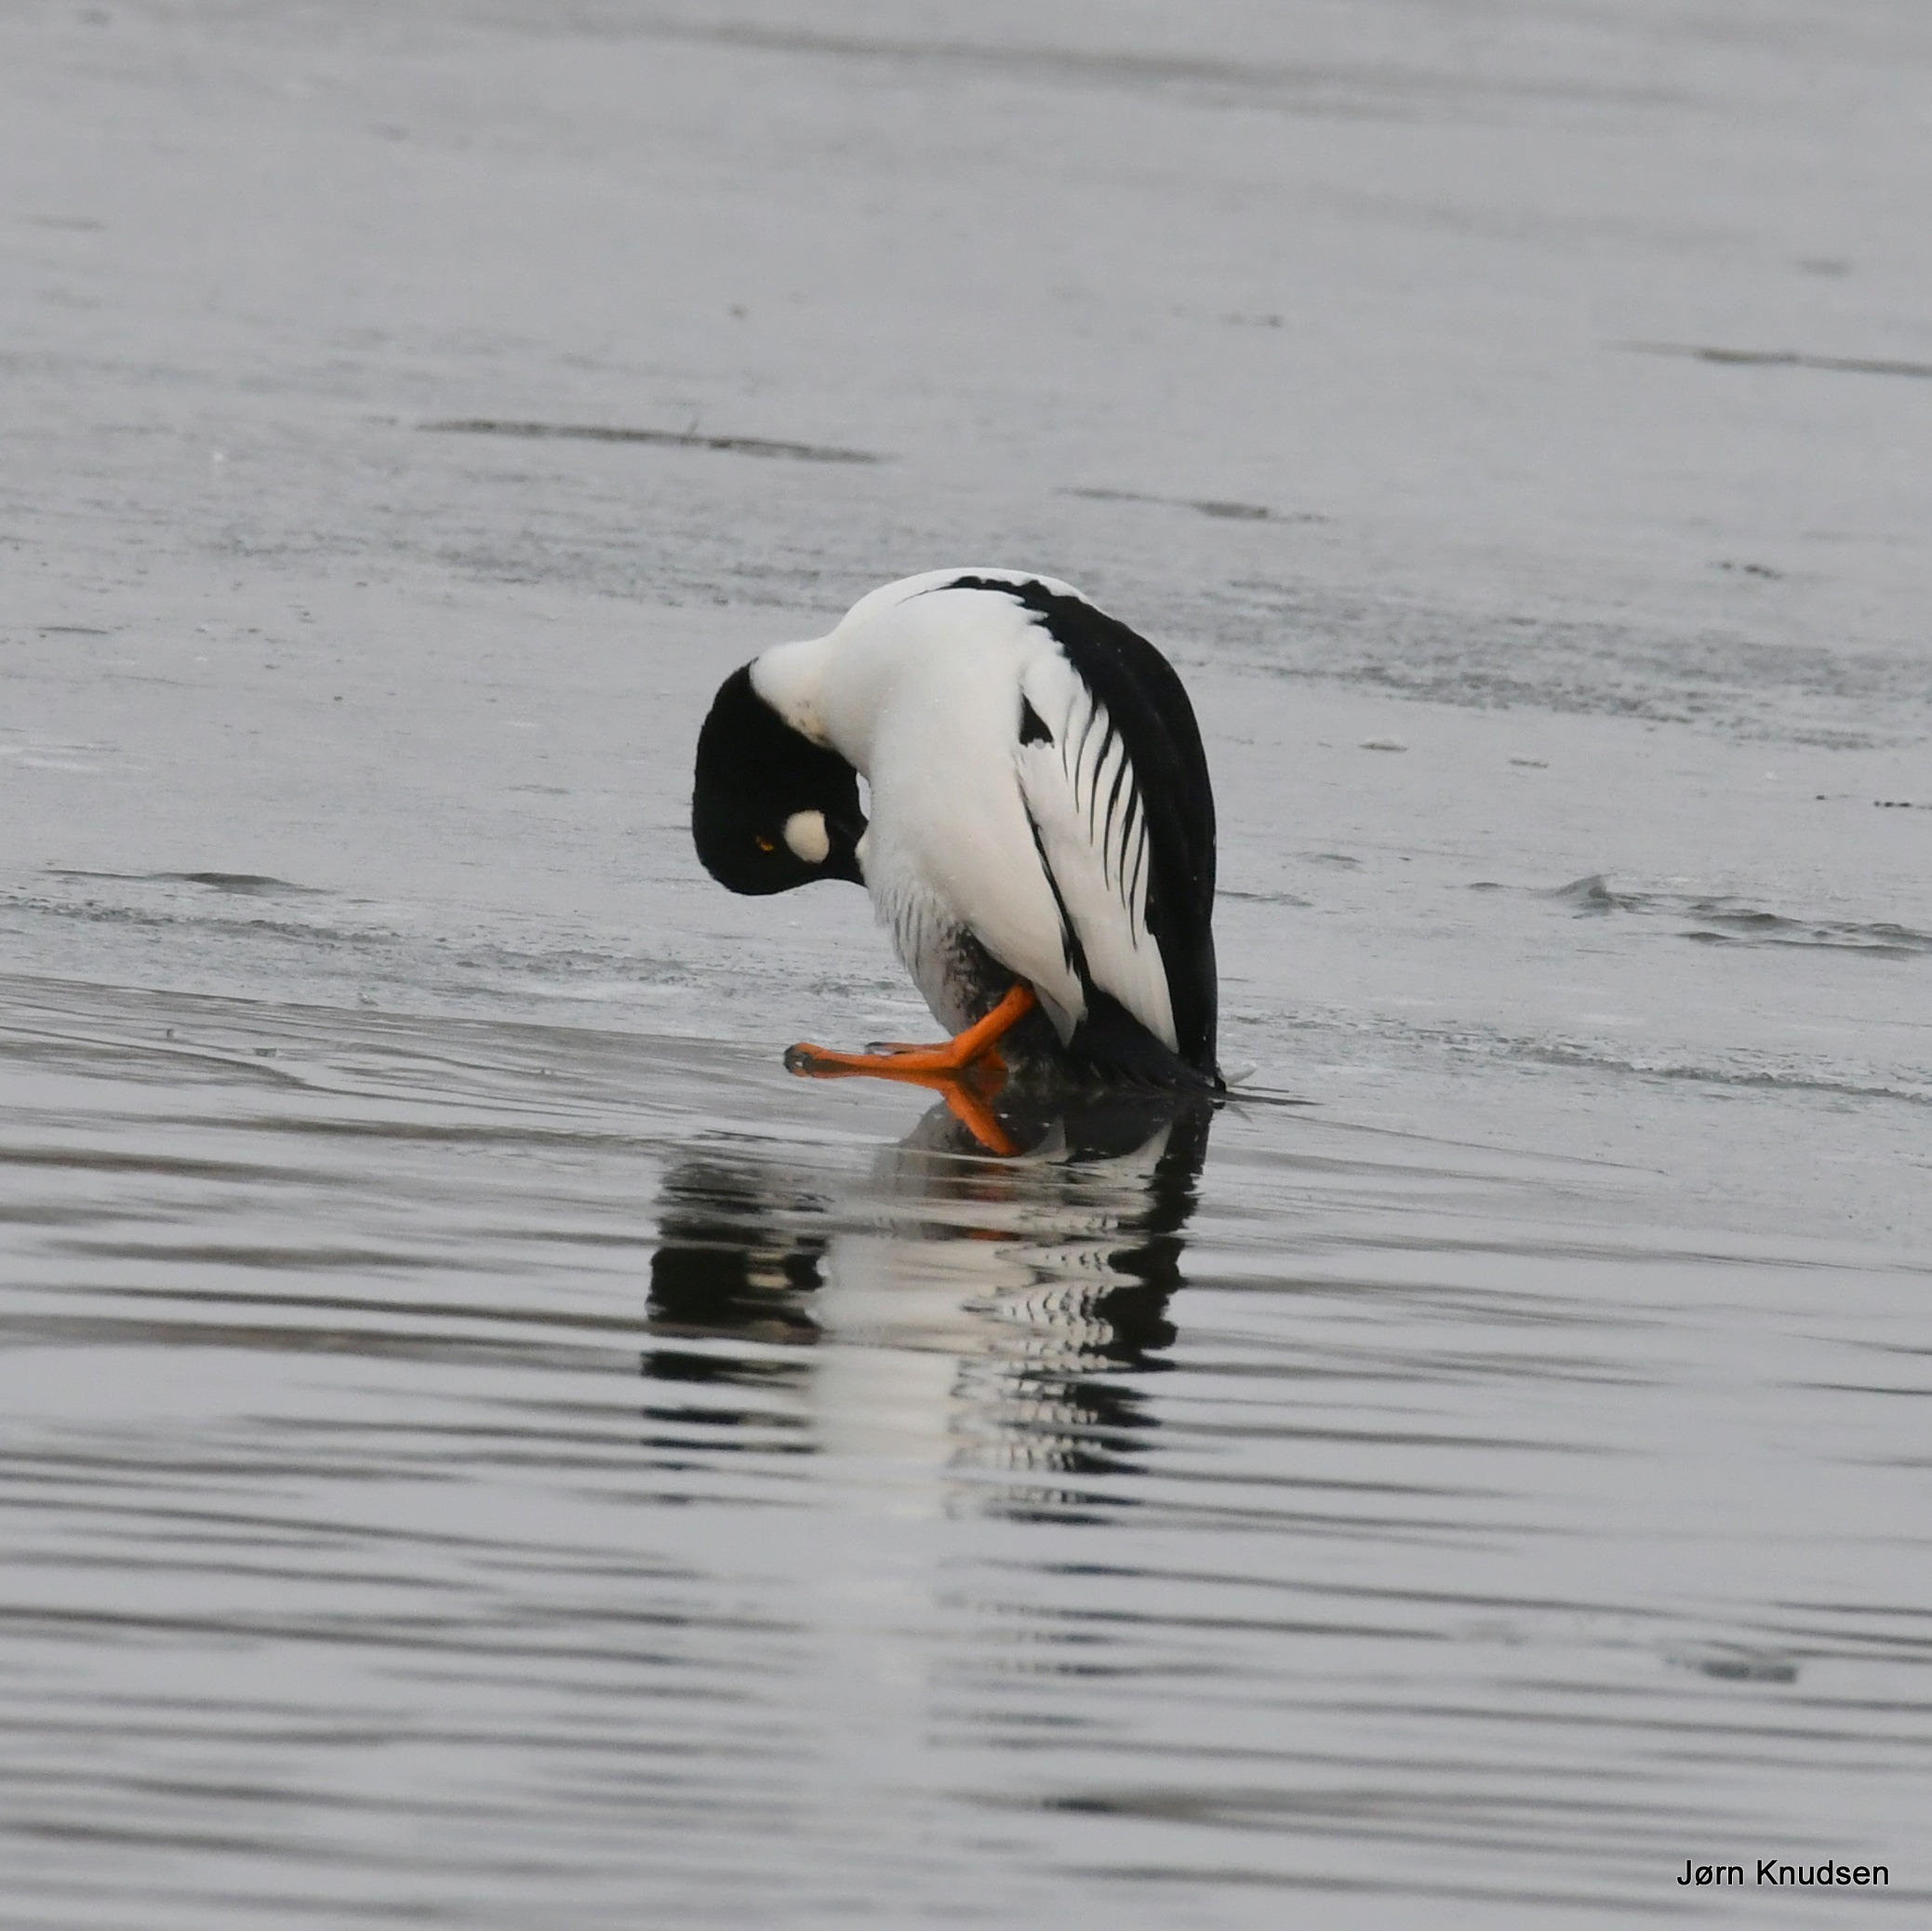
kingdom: Animalia
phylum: Chordata
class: Aves
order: Anseriformes
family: Anatidae
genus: Bucephala
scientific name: Bucephala clangula
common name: Hvinand
